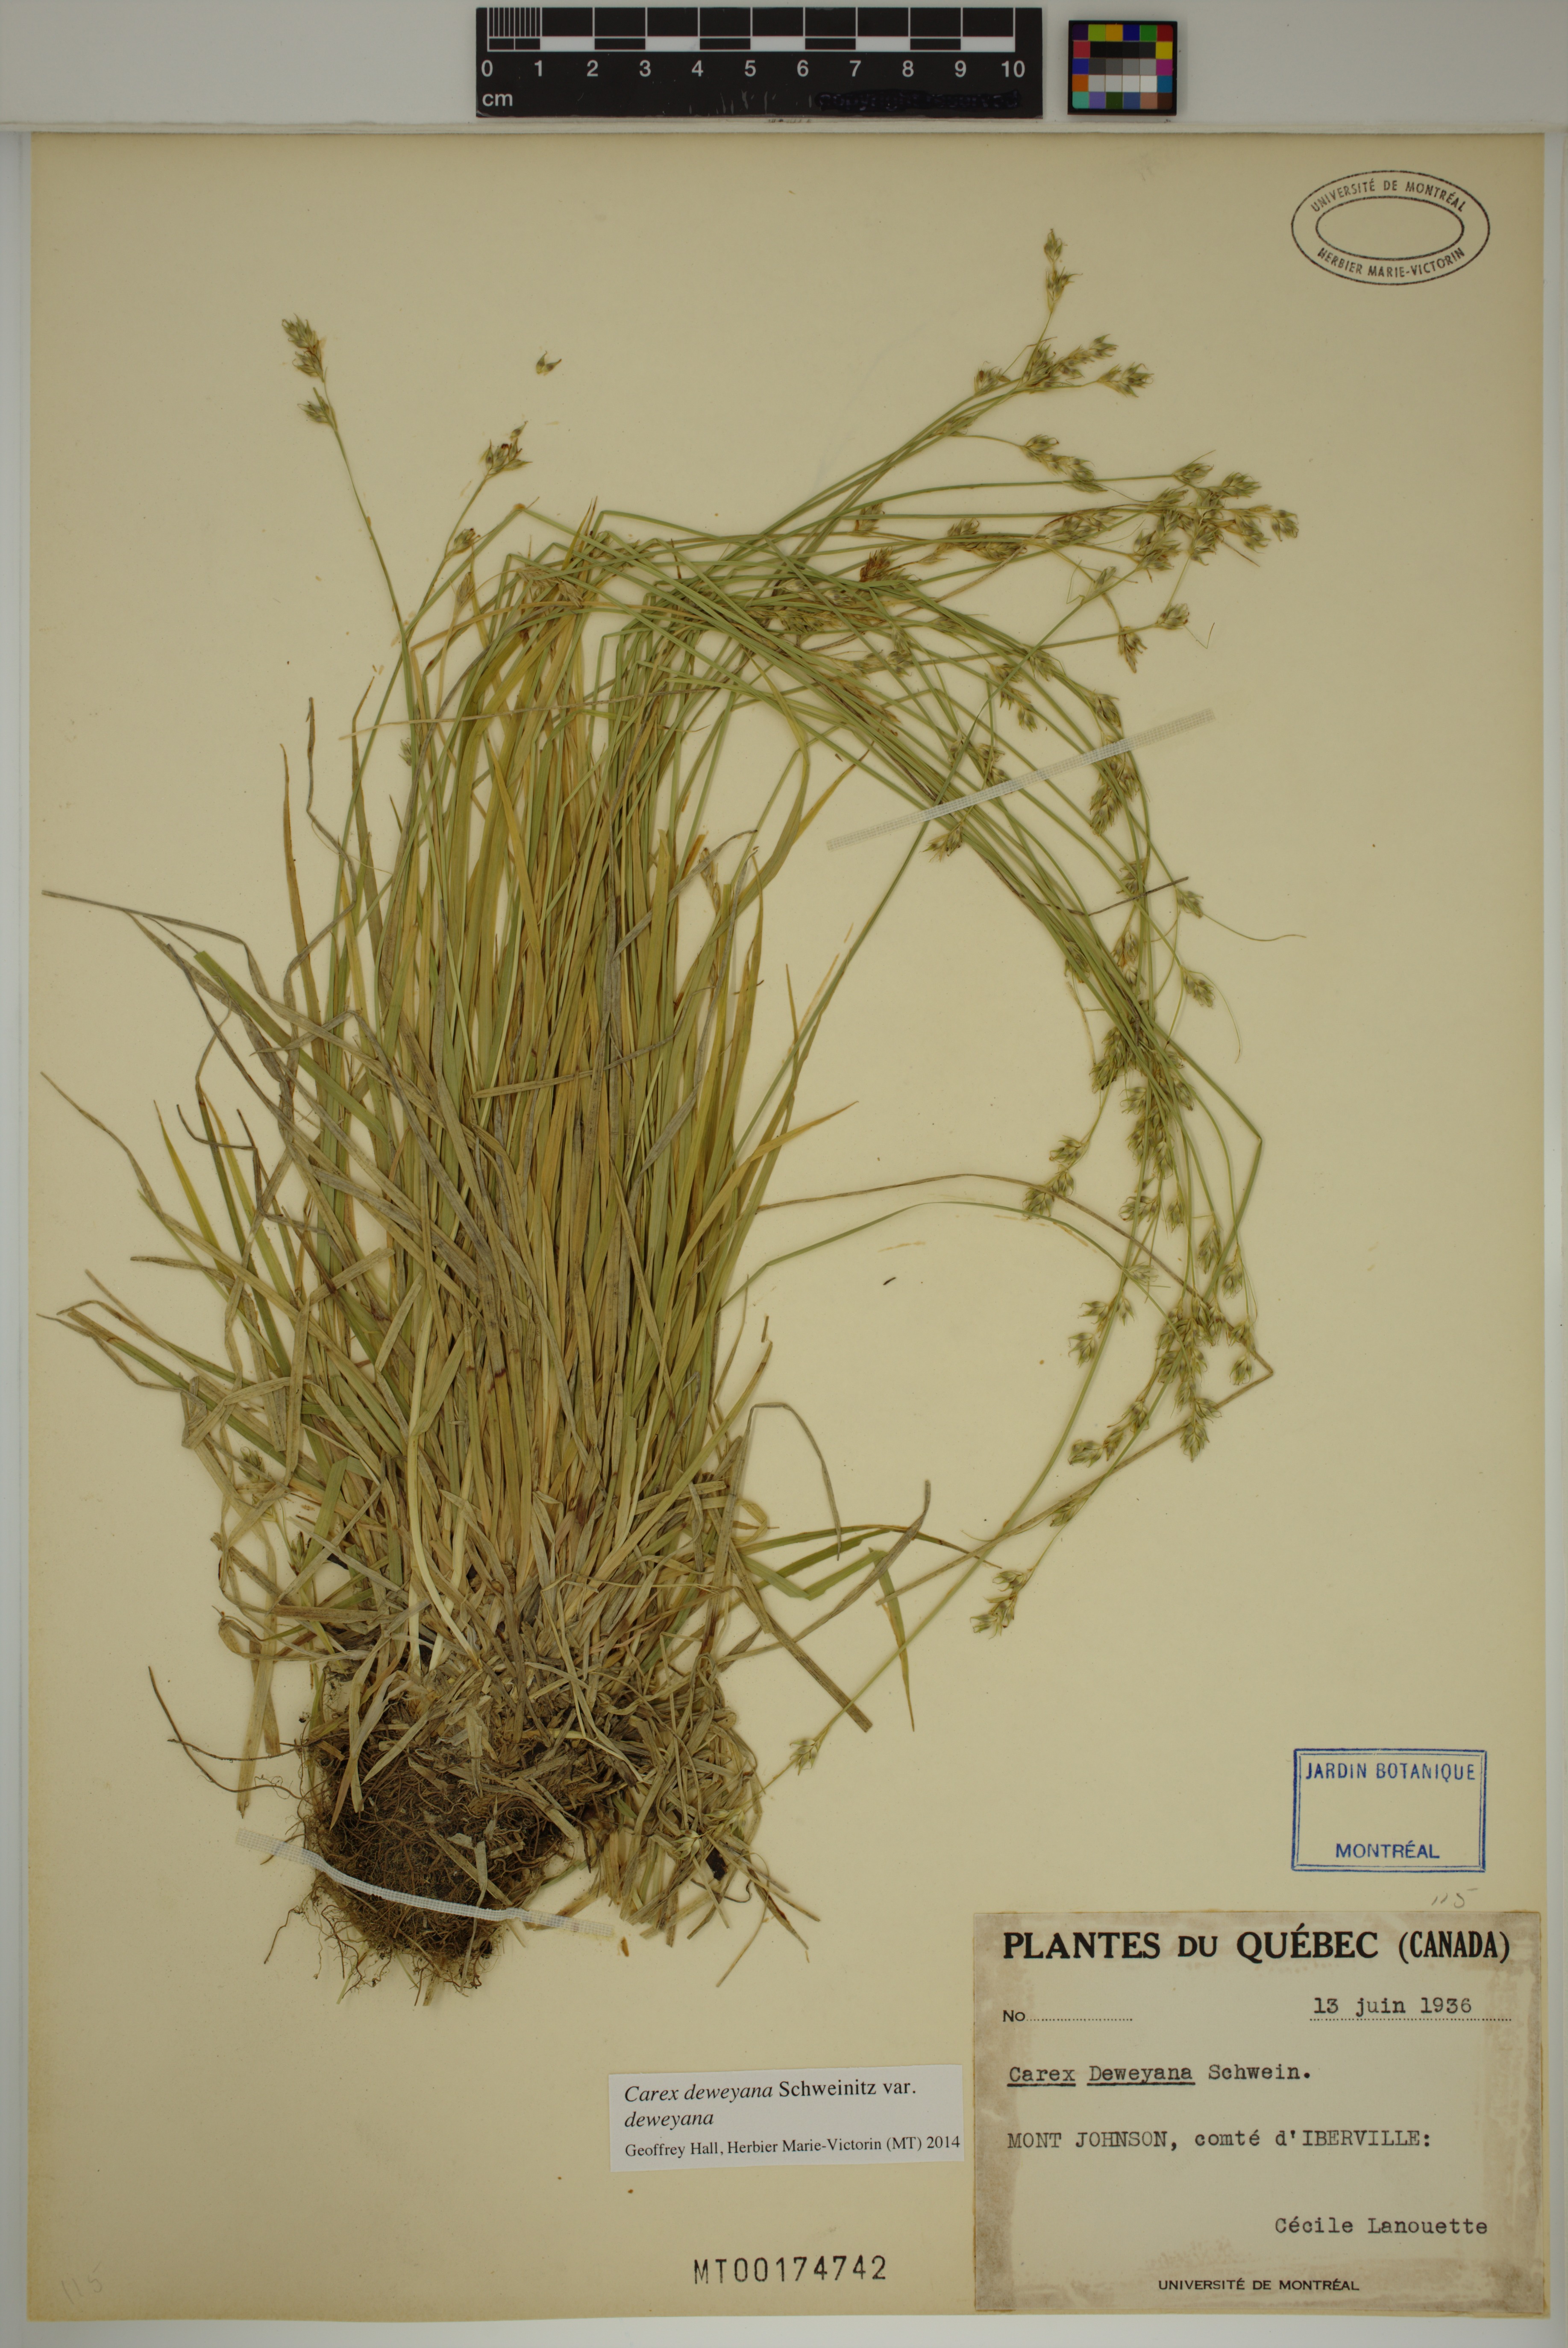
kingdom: Plantae
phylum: Tracheophyta
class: Liliopsida
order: Poales
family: Cyperaceae
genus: Carex
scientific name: Carex deweyana
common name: Dewey's sedge
